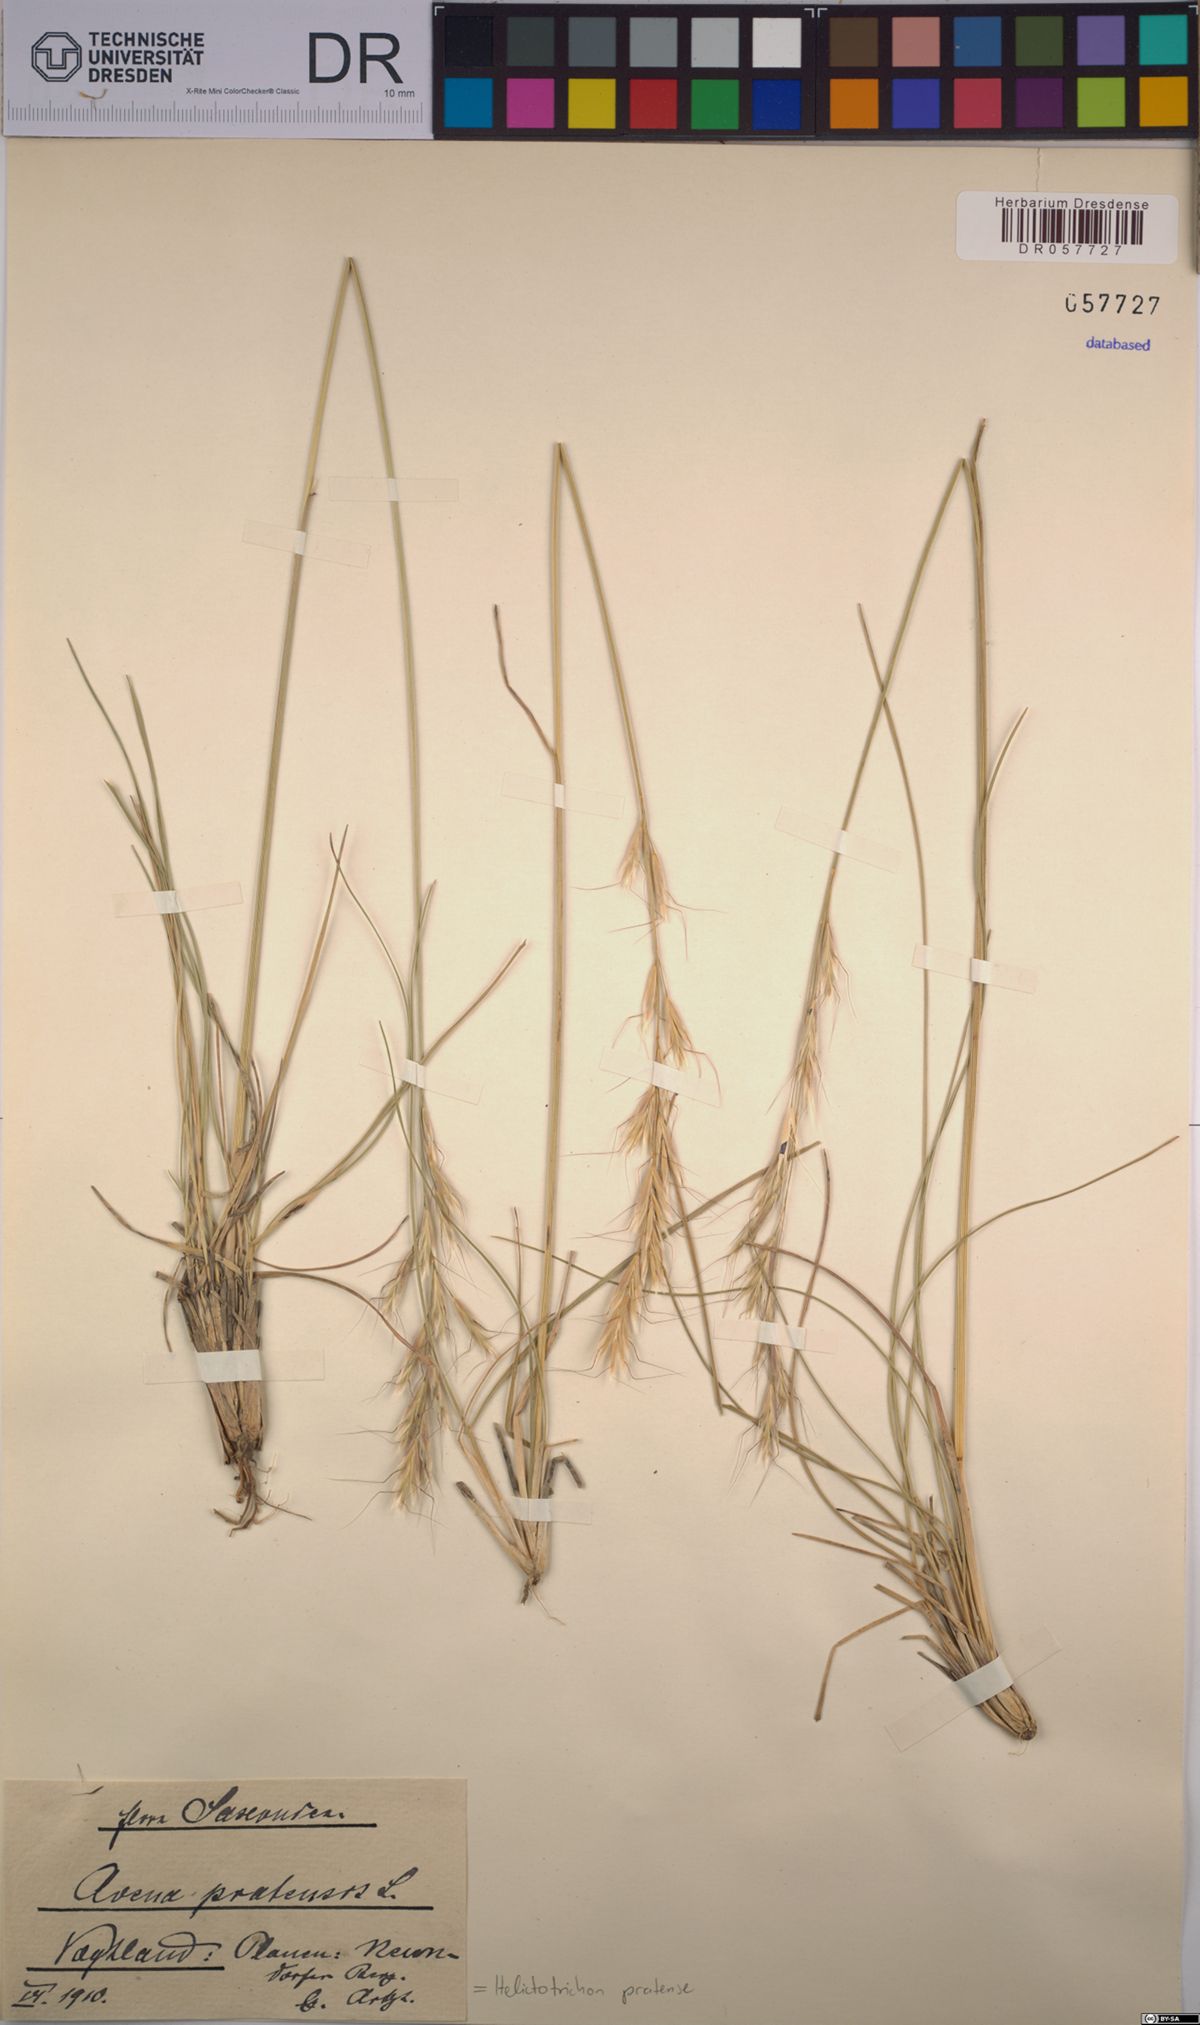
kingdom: Plantae
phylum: Tracheophyta
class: Liliopsida
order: Poales
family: Poaceae
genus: Helictochloa
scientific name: Helictochloa pratensis
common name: Meadow oat grass
